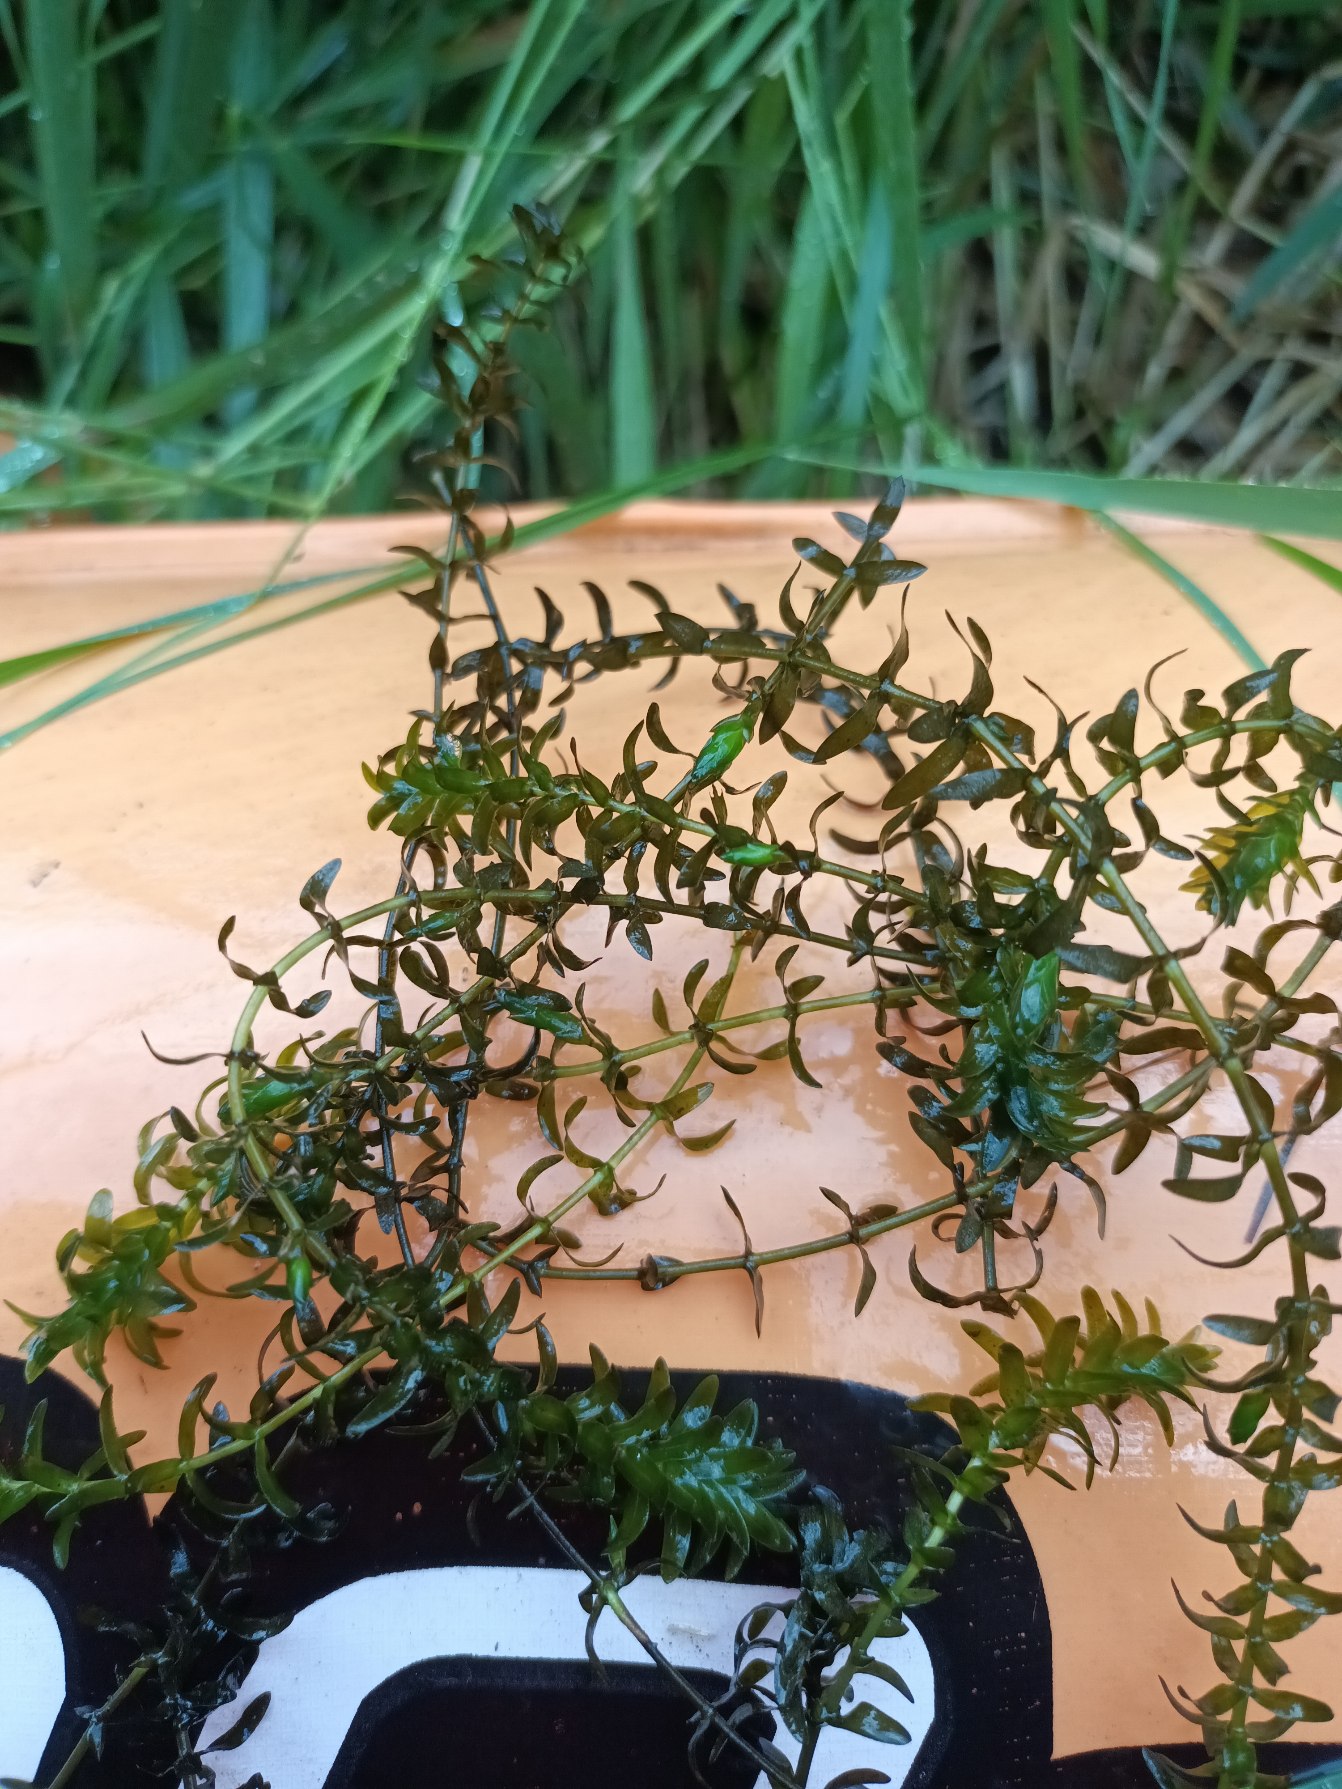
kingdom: Plantae
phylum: Tracheophyta
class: Liliopsida
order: Alismatales
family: Hydrocharitaceae
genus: Elodea
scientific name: Elodea canadensis
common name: Vandpest
